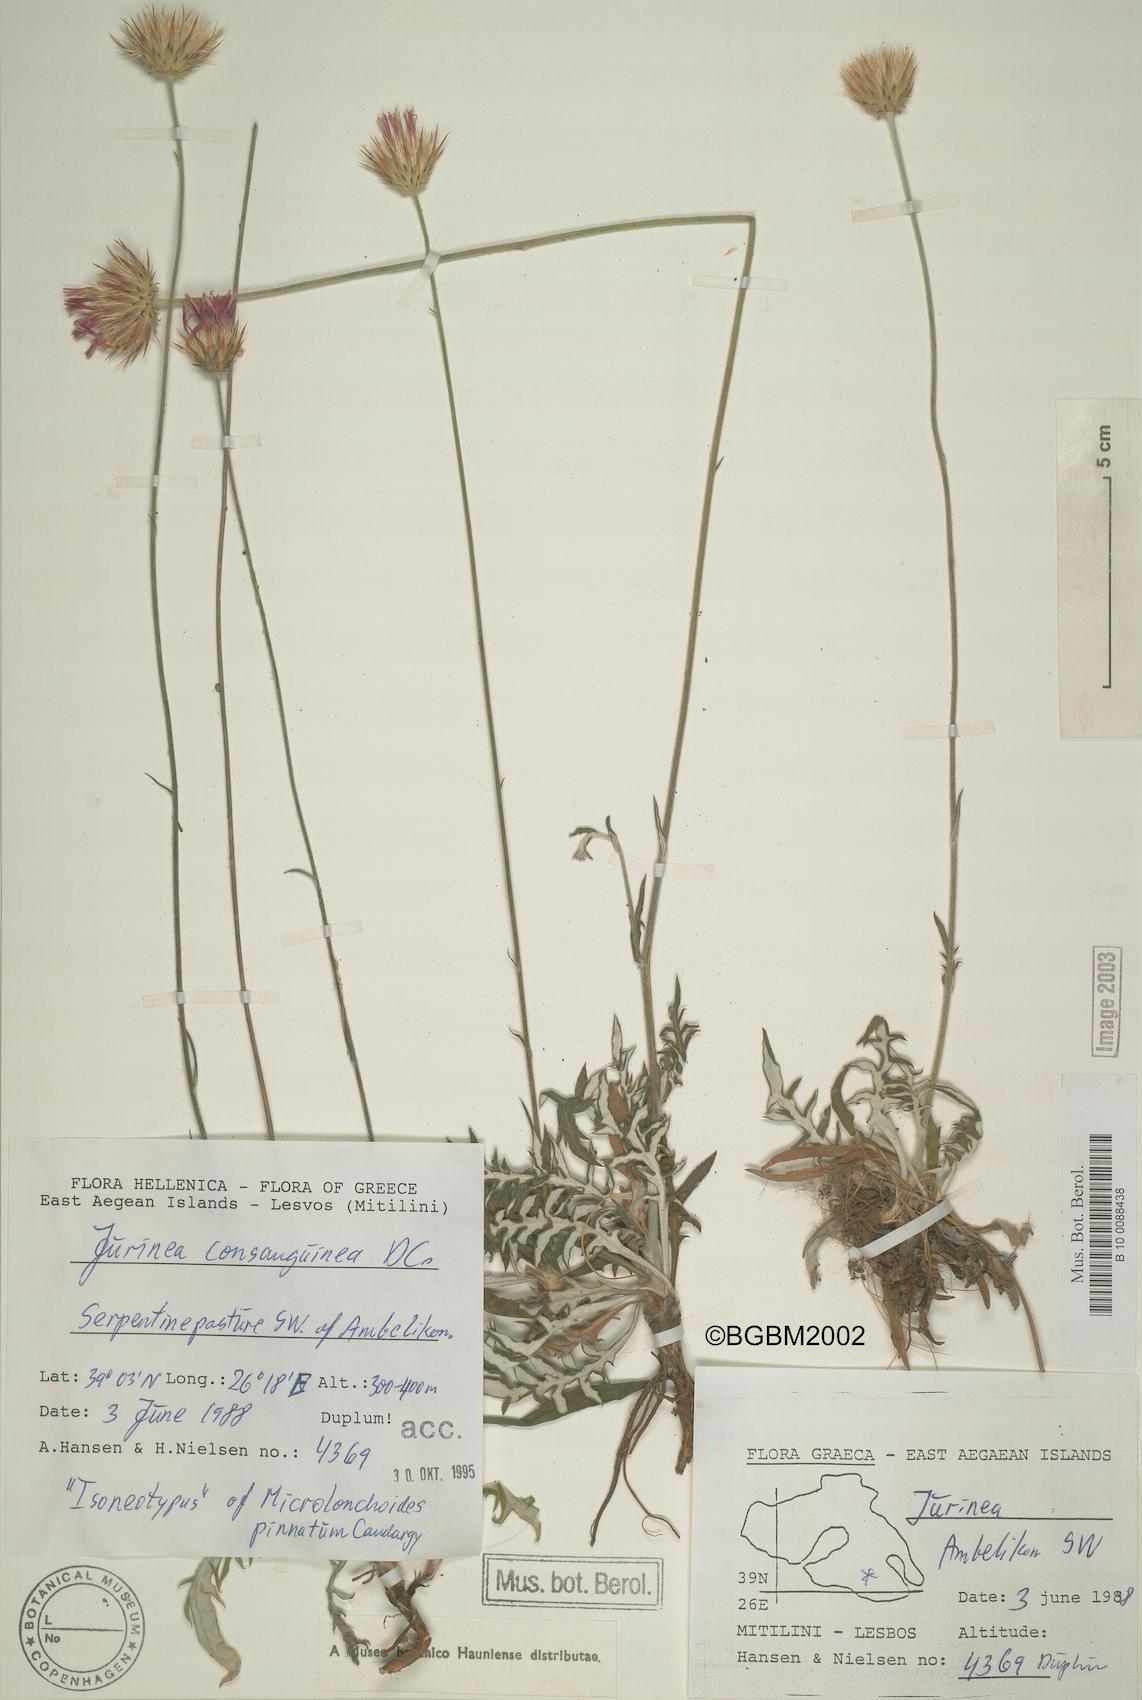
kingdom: Plantae
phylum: Tracheophyta
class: Magnoliopsida
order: Asterales
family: Asteraceae
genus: Jurinea
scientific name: Jurinea consanguinea
